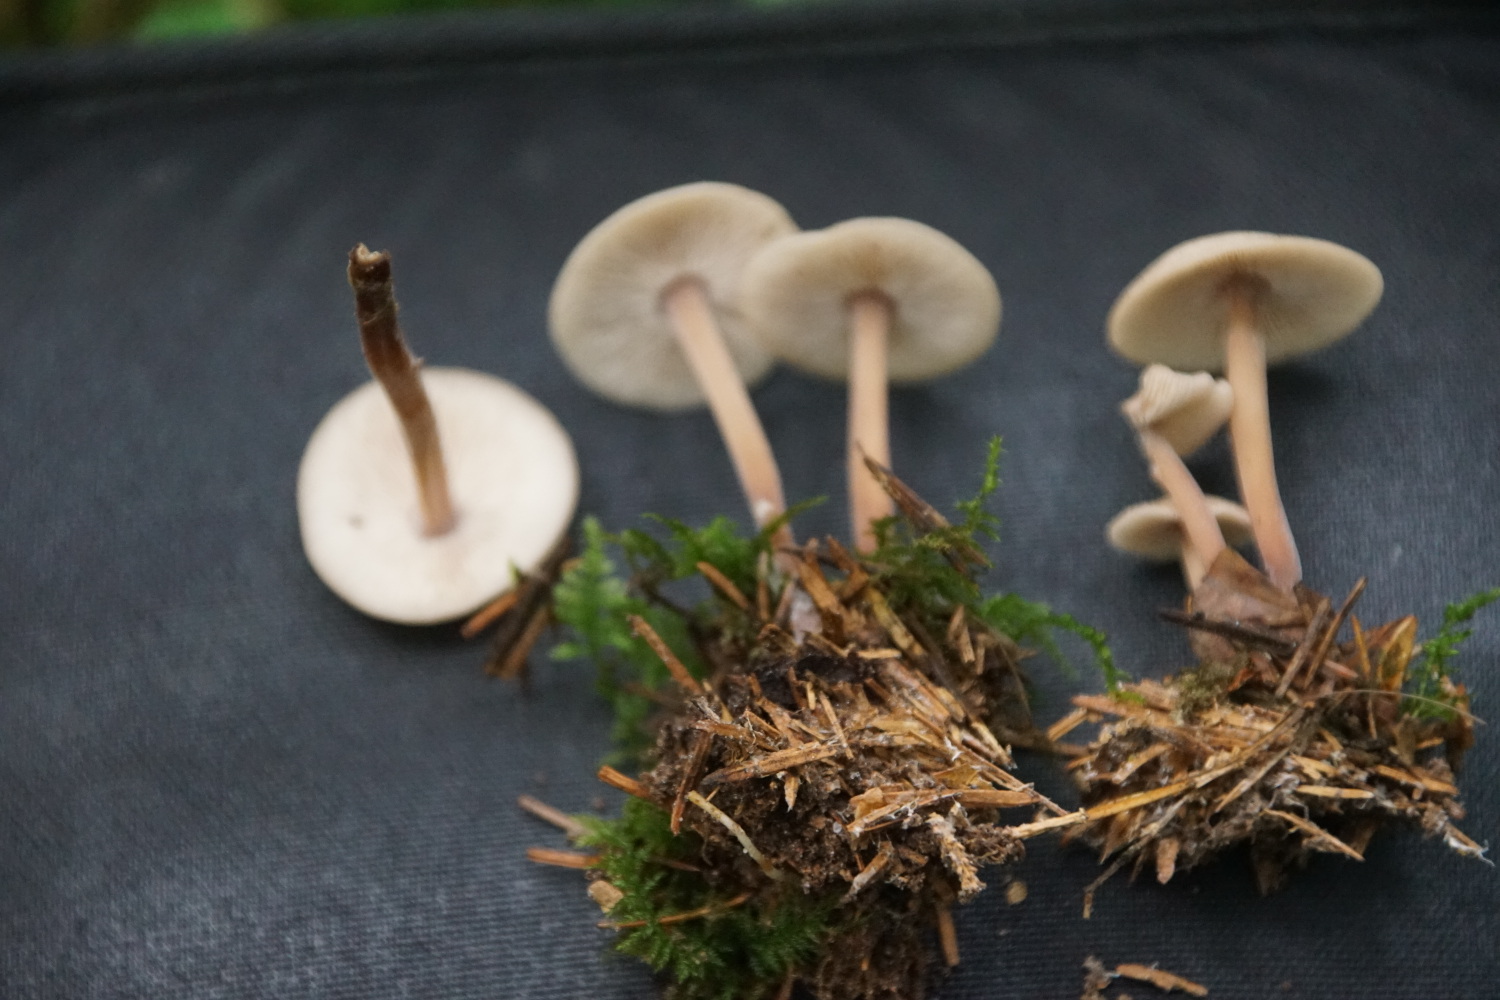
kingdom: Fungi
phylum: Basidiomycota
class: Agaricomycetes
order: Agaricales
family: Omphalotaceae
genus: Collybiopsis
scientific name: Collybiopsis confluens
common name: knippe-fladhat
